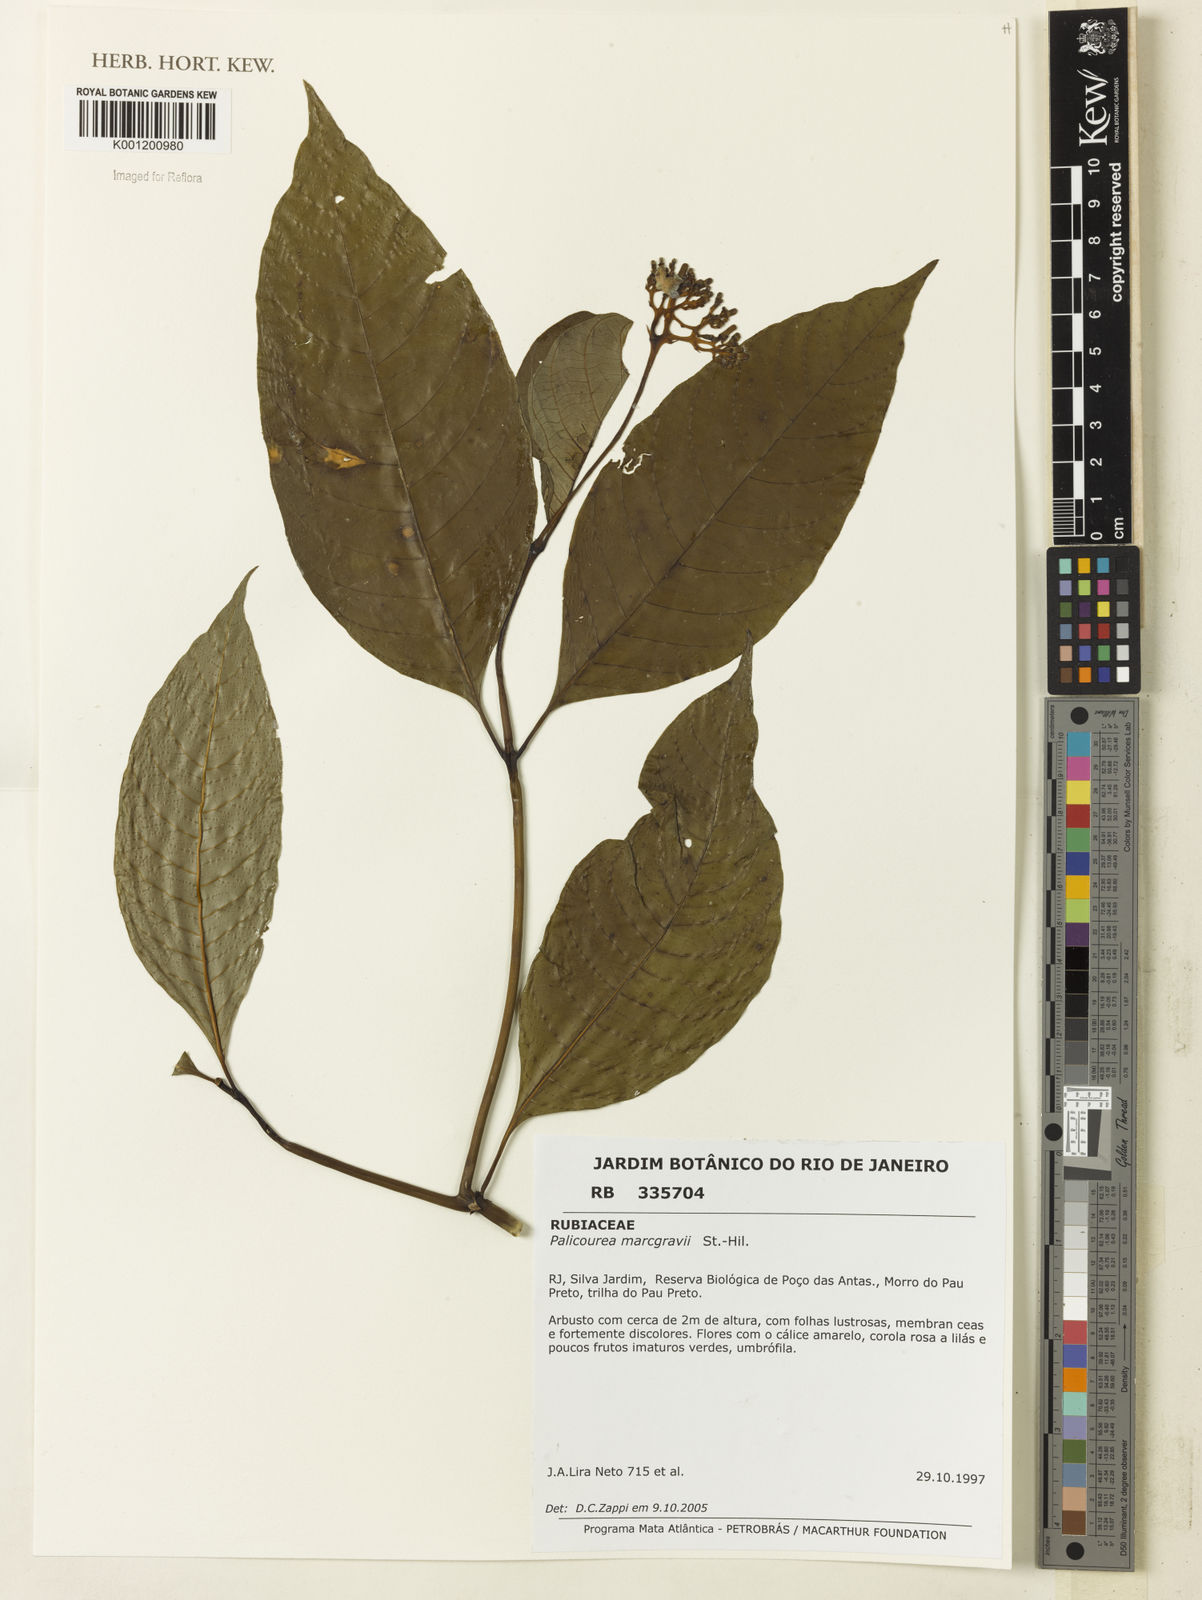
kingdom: Plantae
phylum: Tracheophyta
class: Magnoliopsida
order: Gentianales
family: Rubiaceae
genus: Palicourea
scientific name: Palicourea marcgravii
